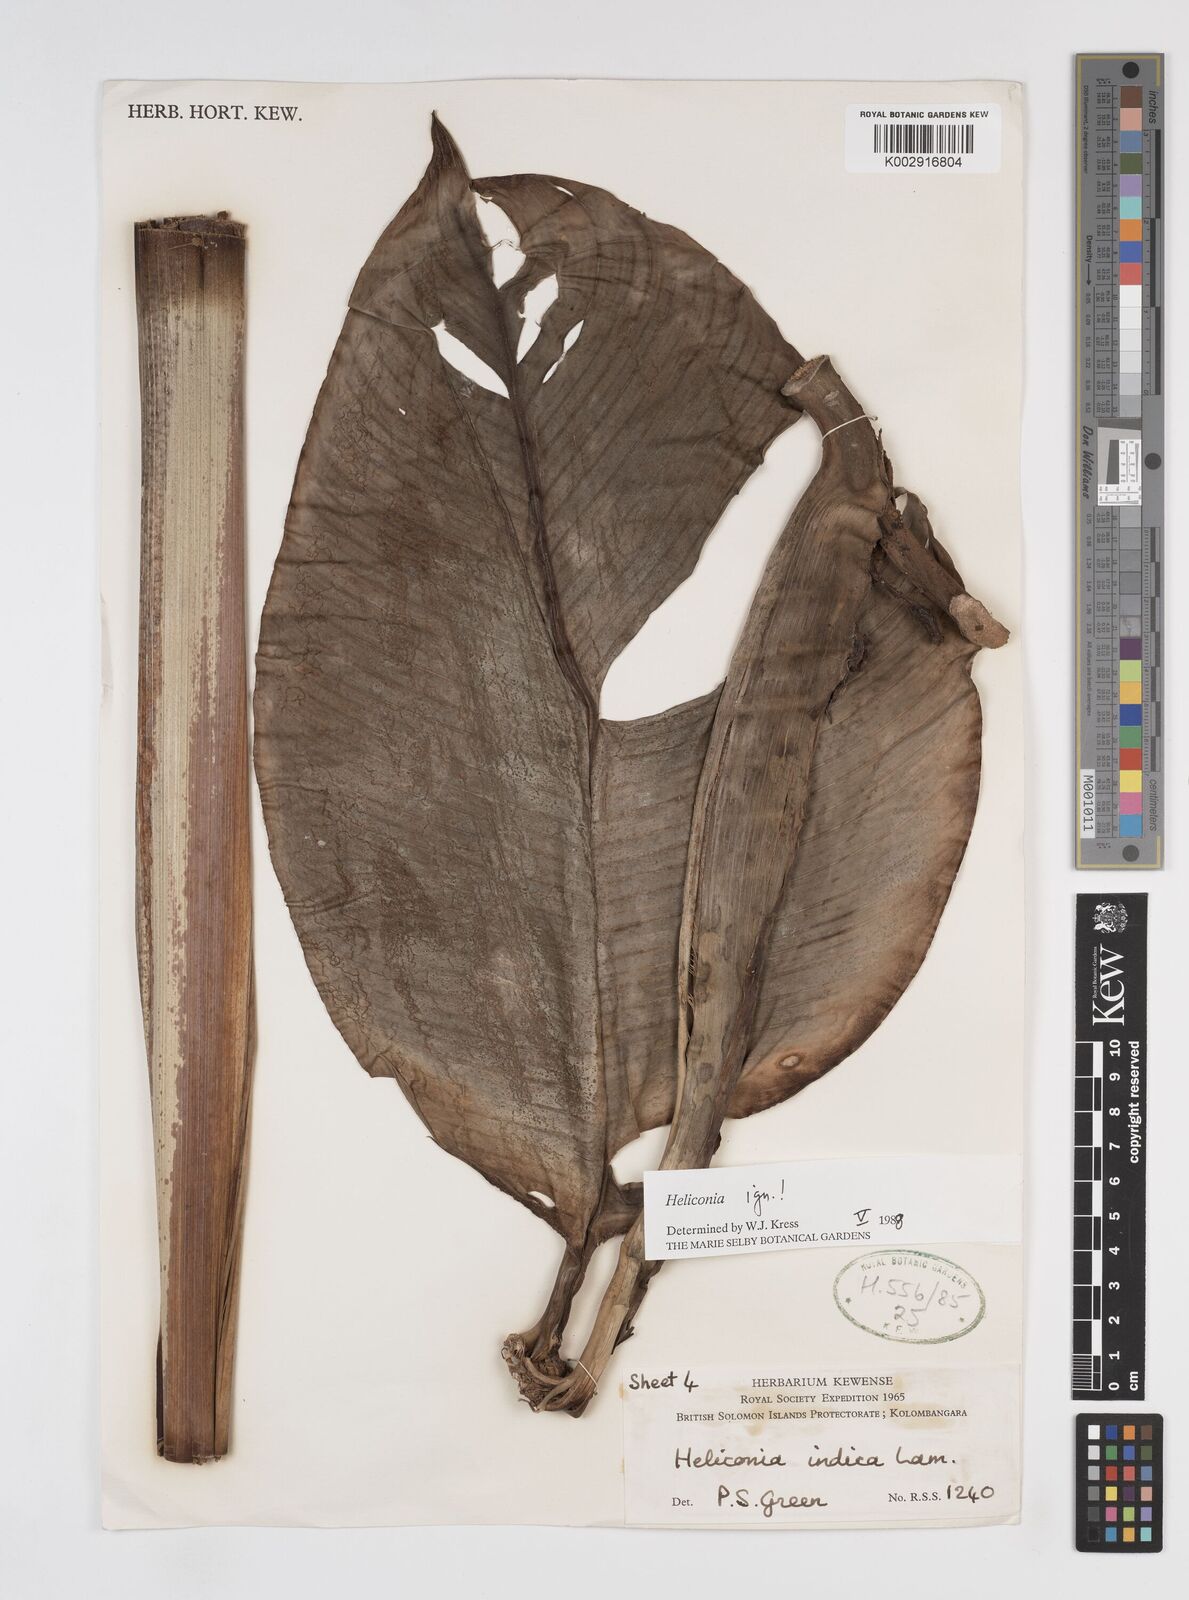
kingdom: Plantae
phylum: Tracheophyta
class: Liliopsida
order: Zingiberales
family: Heliconiaceae
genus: Heliconia
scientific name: Heliconia
